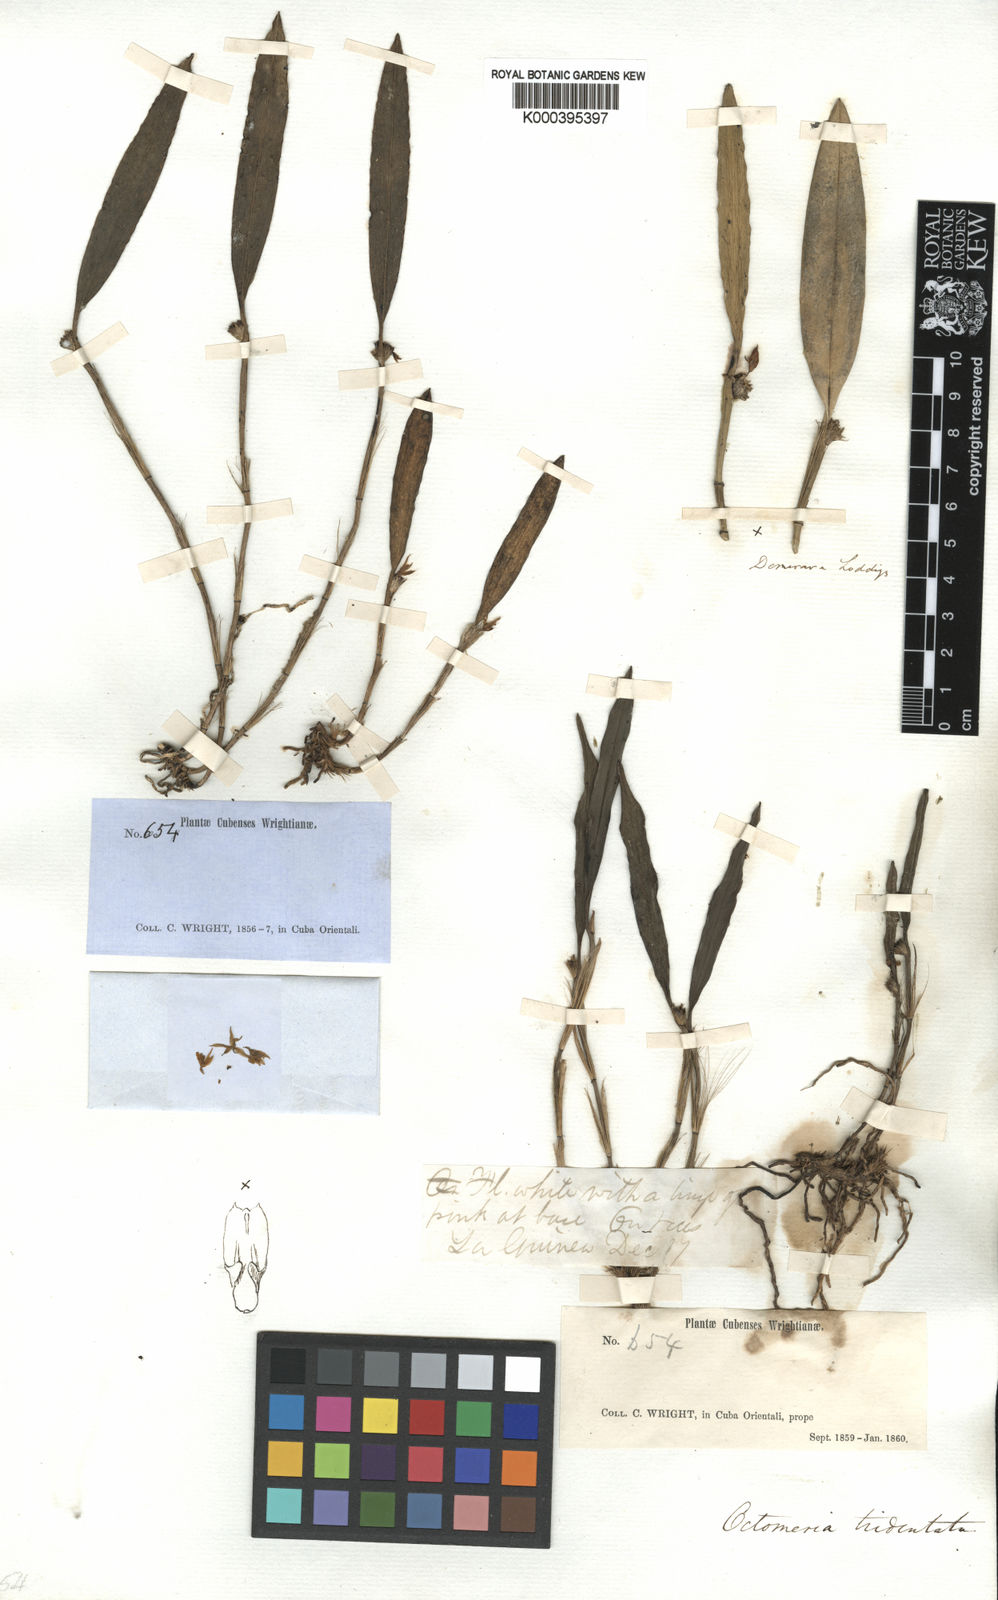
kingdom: Plantae
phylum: Tracheophyta
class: Liliopsida
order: Asparagales
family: Orchidaceae
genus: Octomeria
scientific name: Octomeria tridentata
